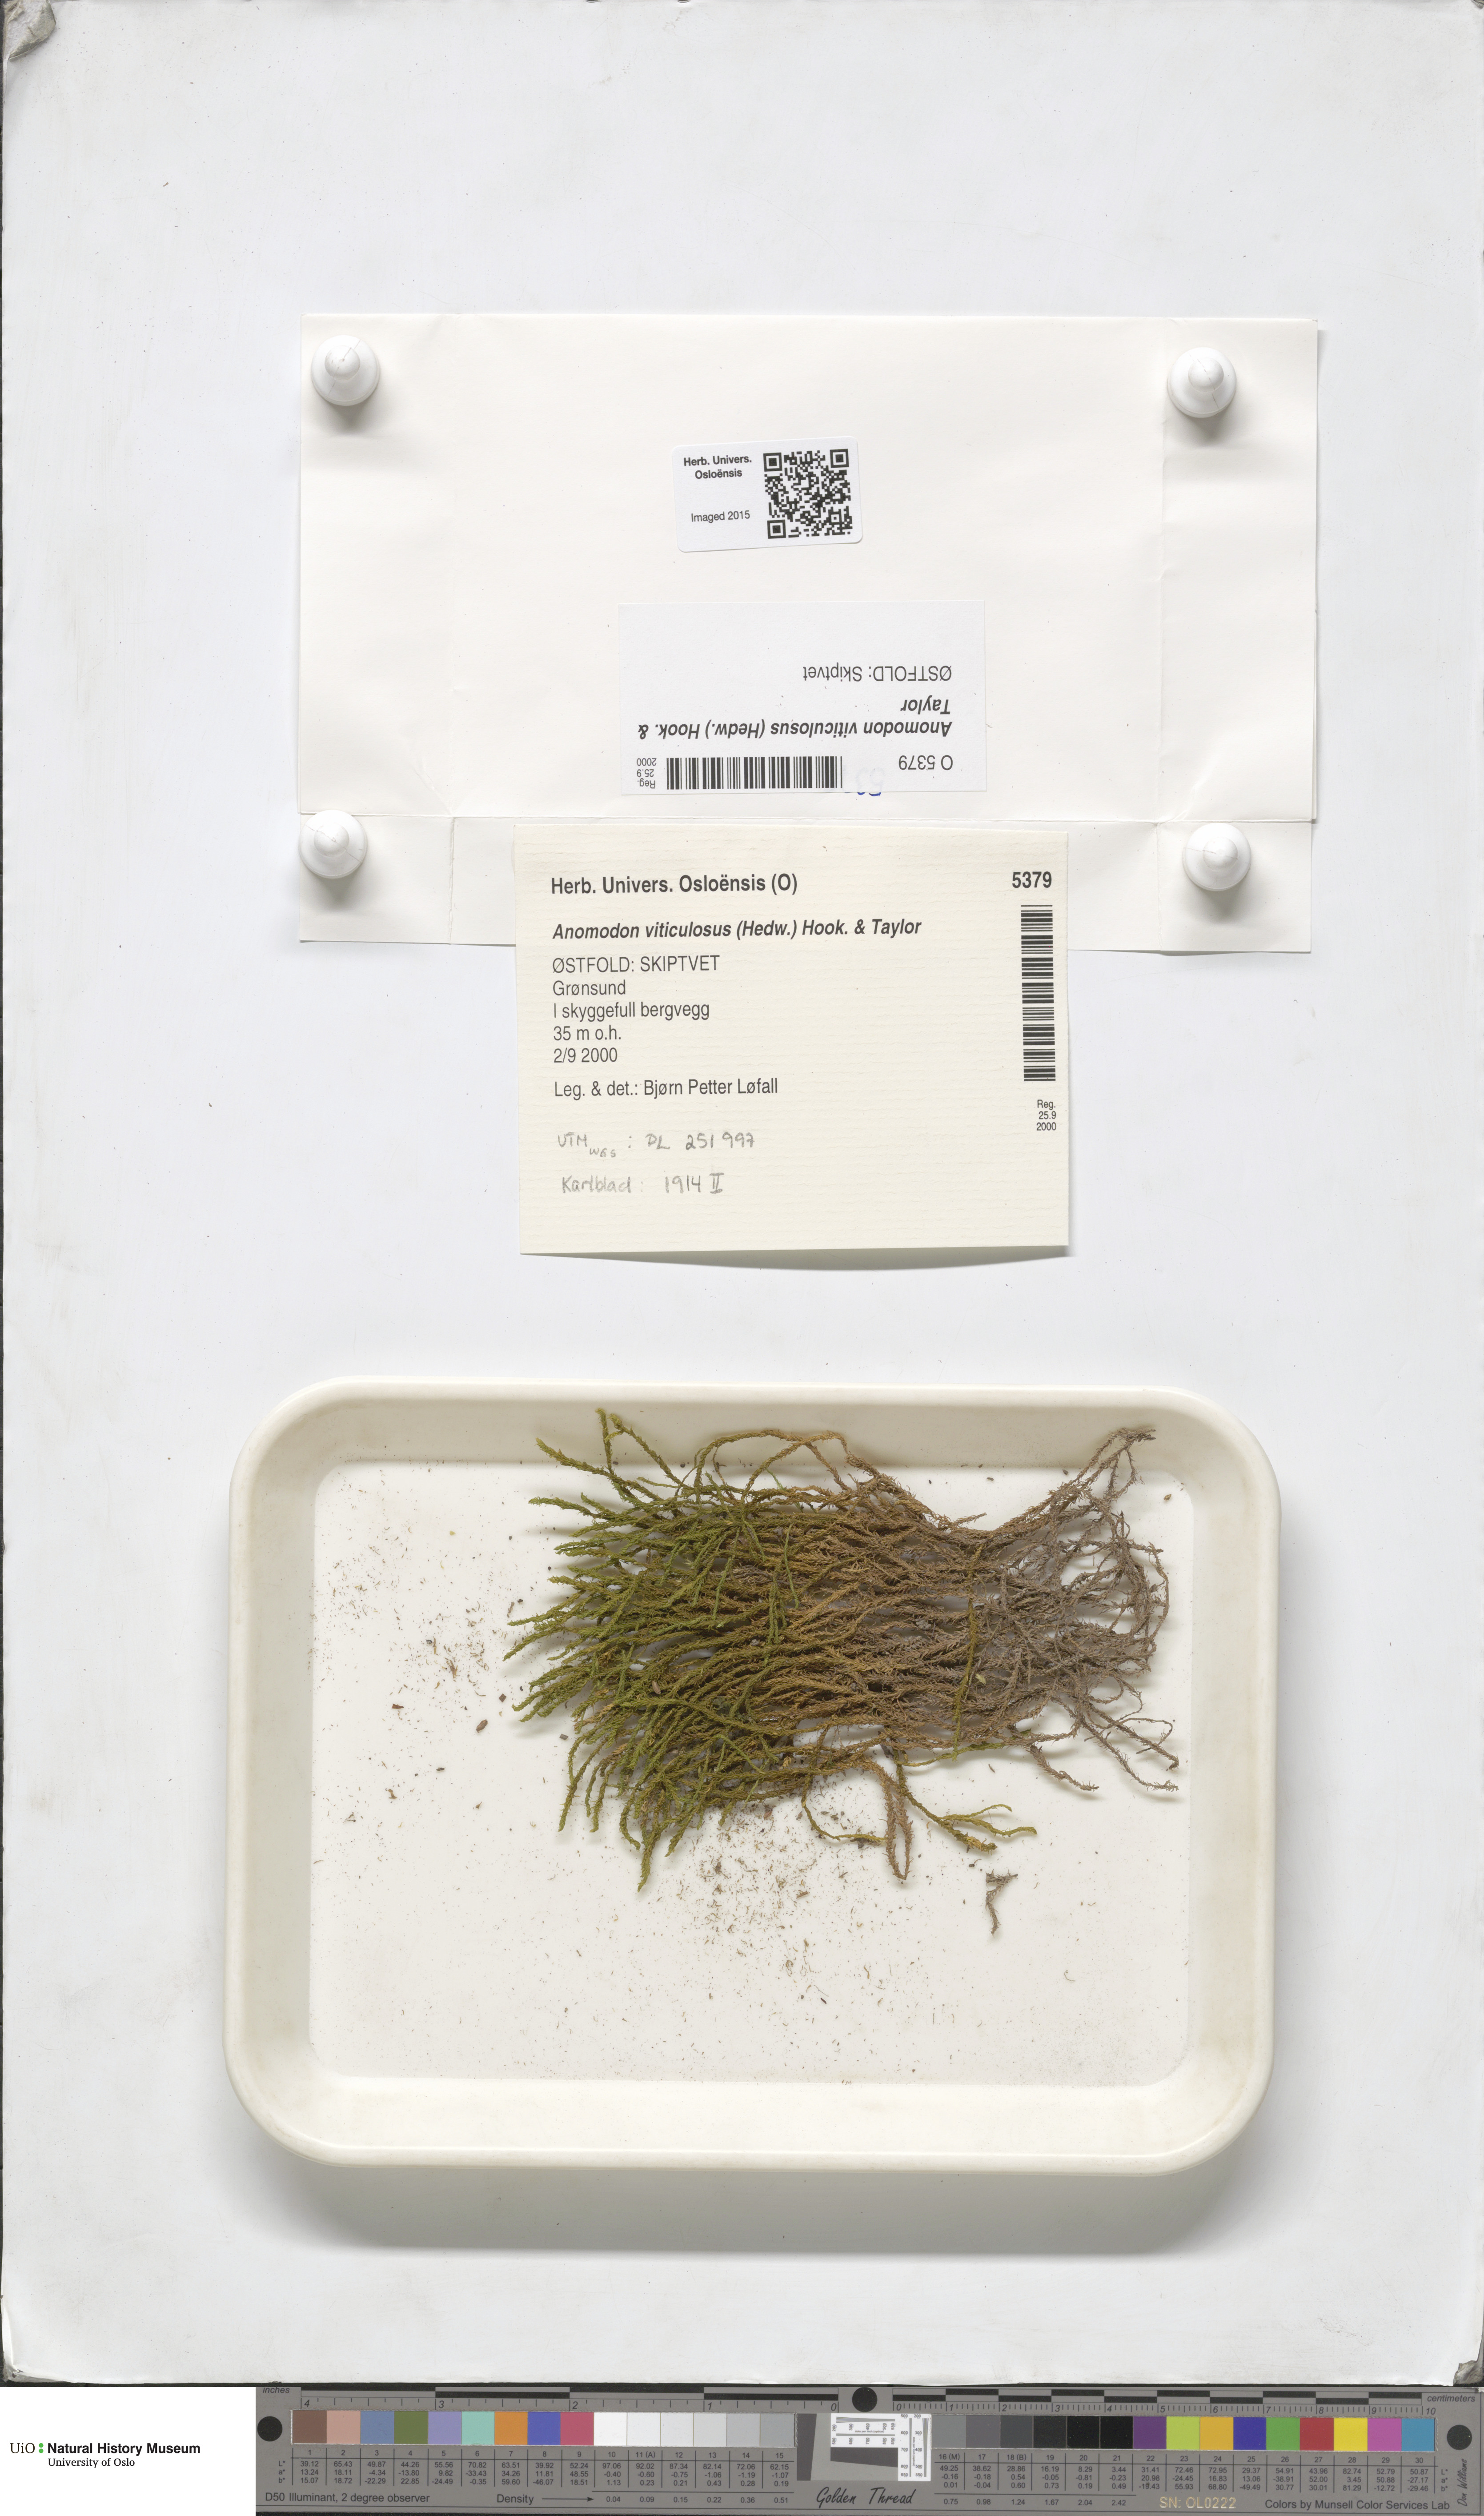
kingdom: Plantae
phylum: Bryophyta
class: Bryopsida
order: Hypnales
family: Anomodontaceae
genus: Anomodon
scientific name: Anomodon viticulosus
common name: Tall anomodon
